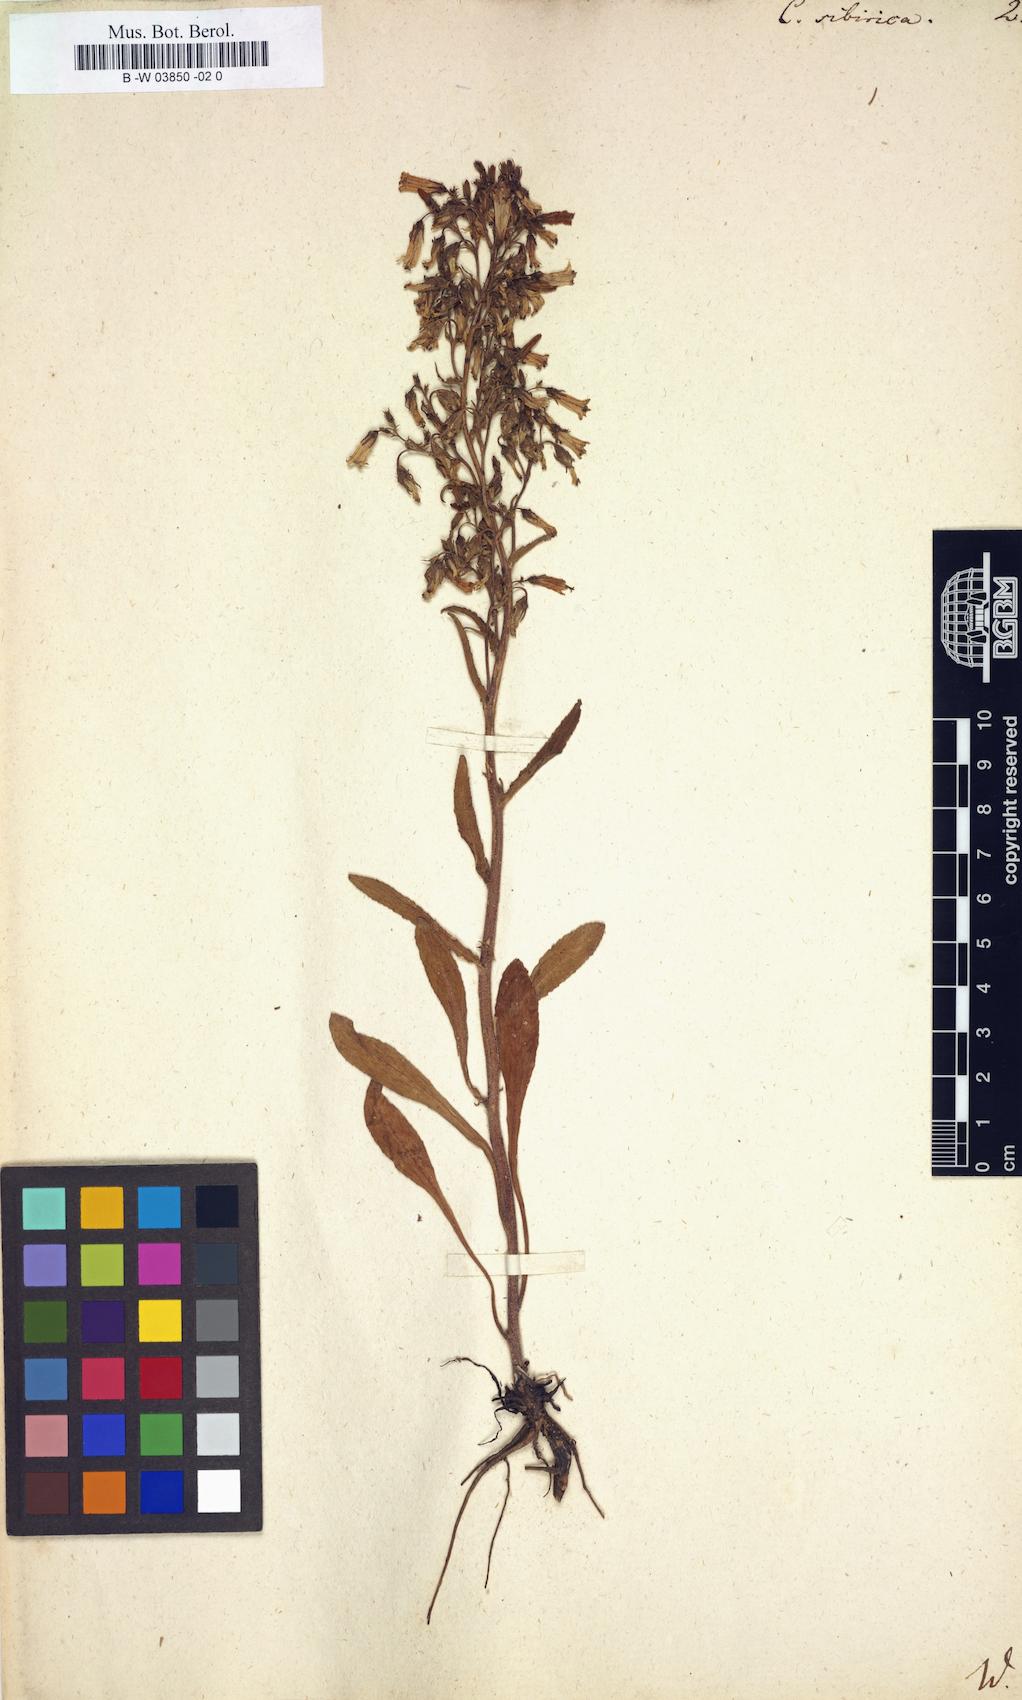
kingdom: Plantae
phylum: Tracheophyta
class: Magnoliopsida
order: Asterales
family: Campanulaceae
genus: Campanula
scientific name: Campanula sibirica
